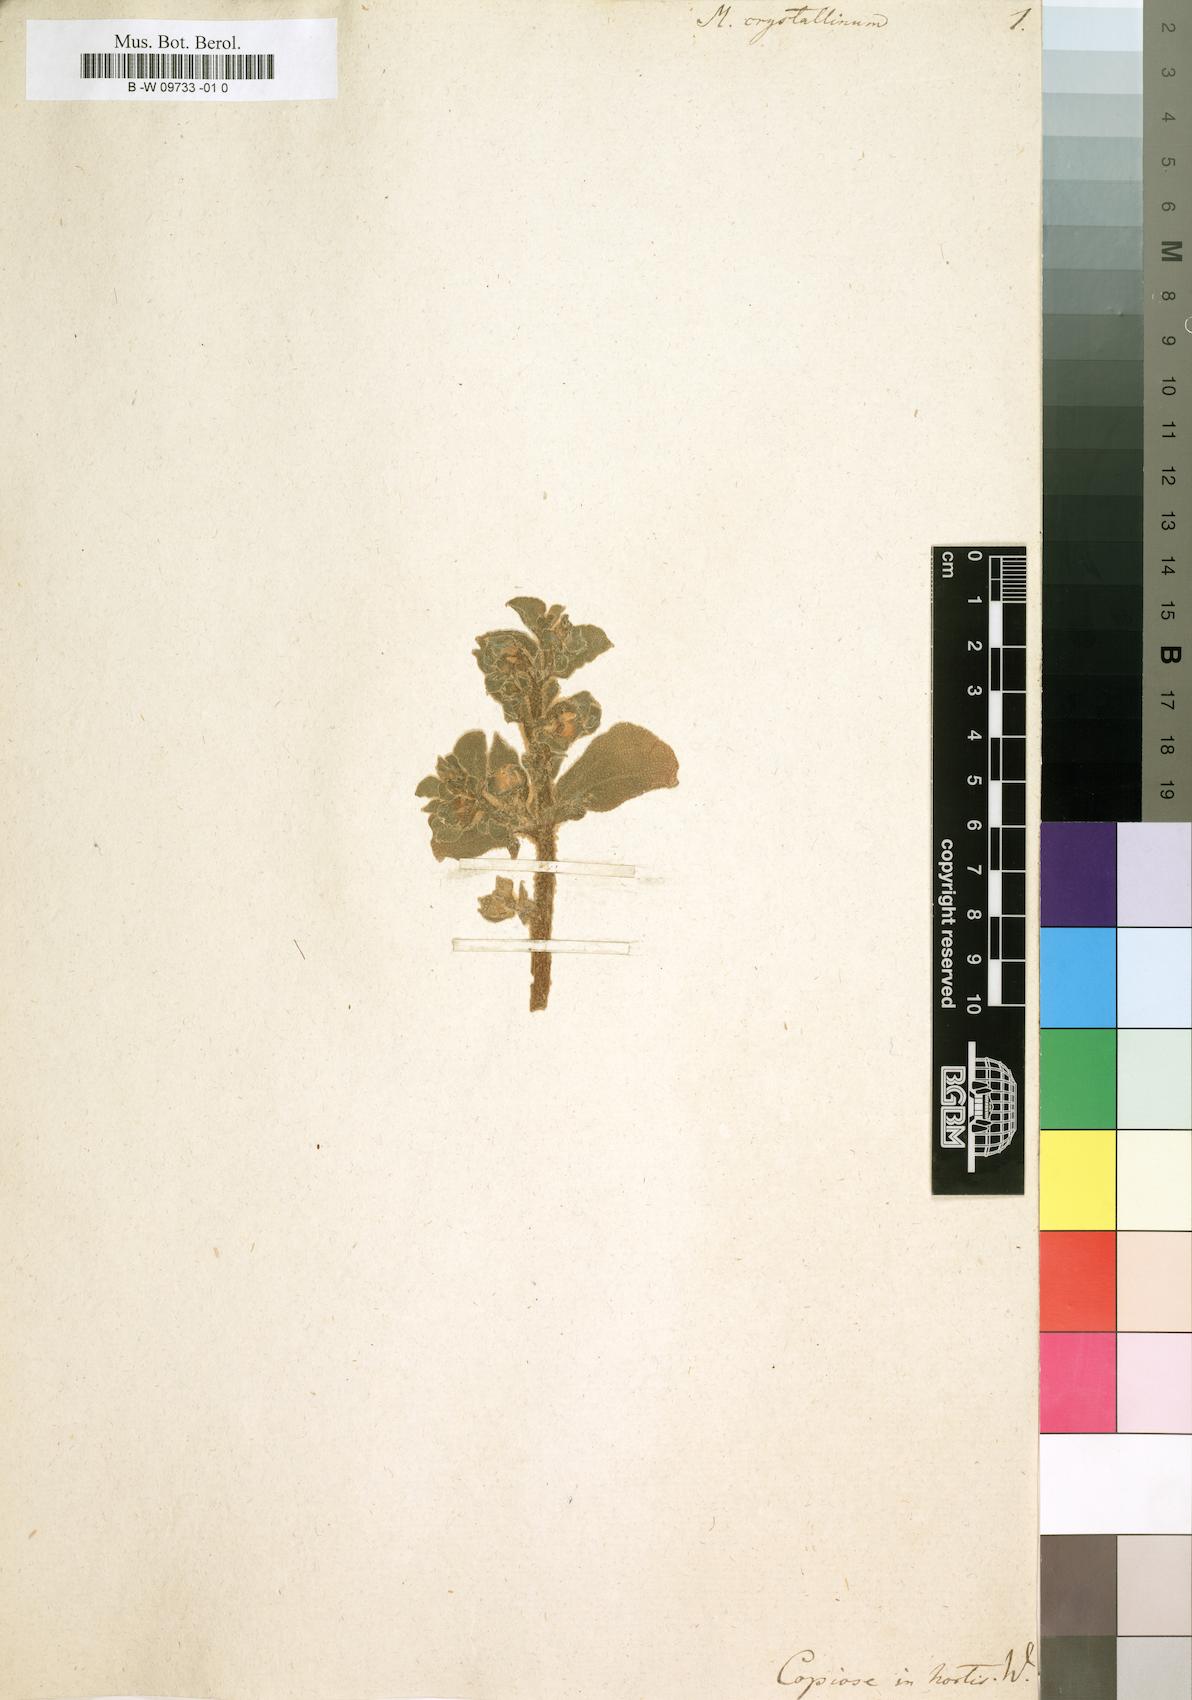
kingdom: Plantae
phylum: Tracheophyta
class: Magnoliopsida
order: Caryophyllales
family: Aizoaceae
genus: Mesembryanthemum
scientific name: Mesembryanthemum crystallinum
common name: Common iceplant
